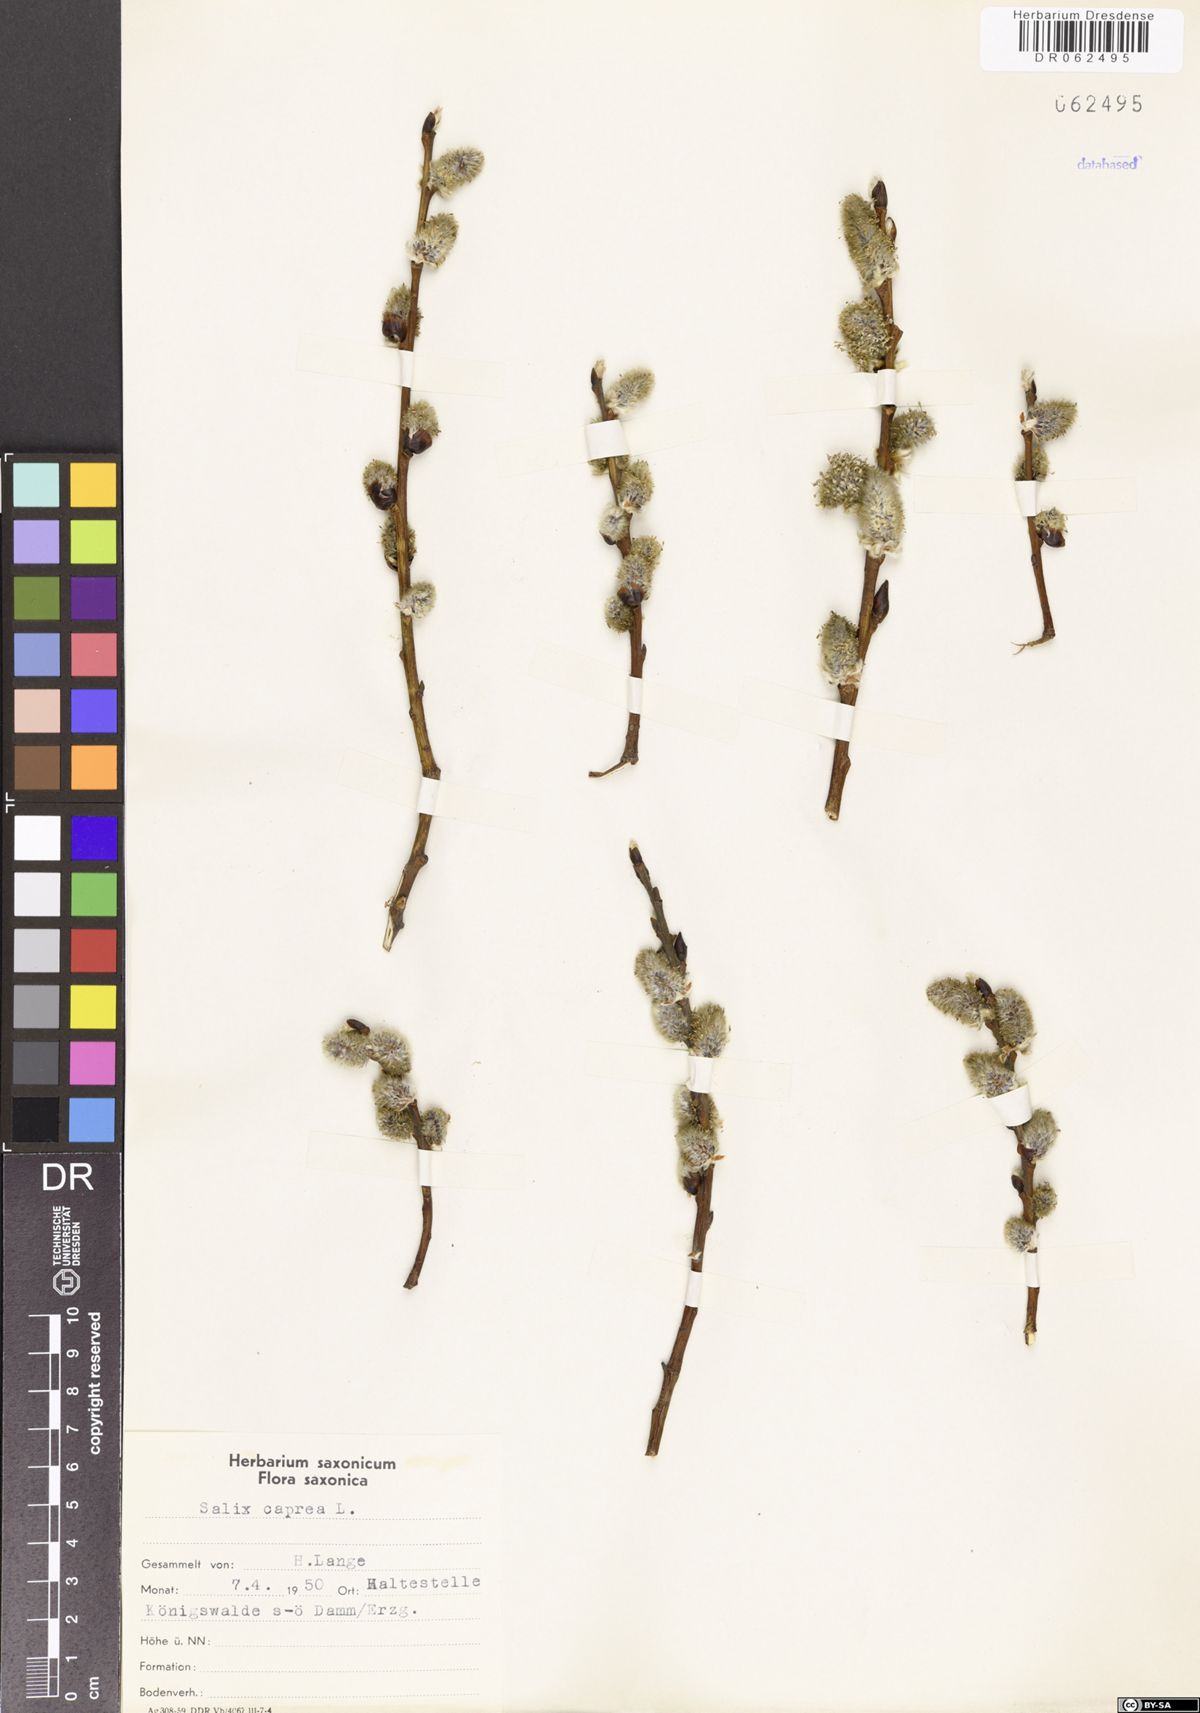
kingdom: Plantae
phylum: Tracheophyta
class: Magnoliopsida
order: Malpighiales
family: Salicaceae
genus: Salix
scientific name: Salix caprea
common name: Goat willow
